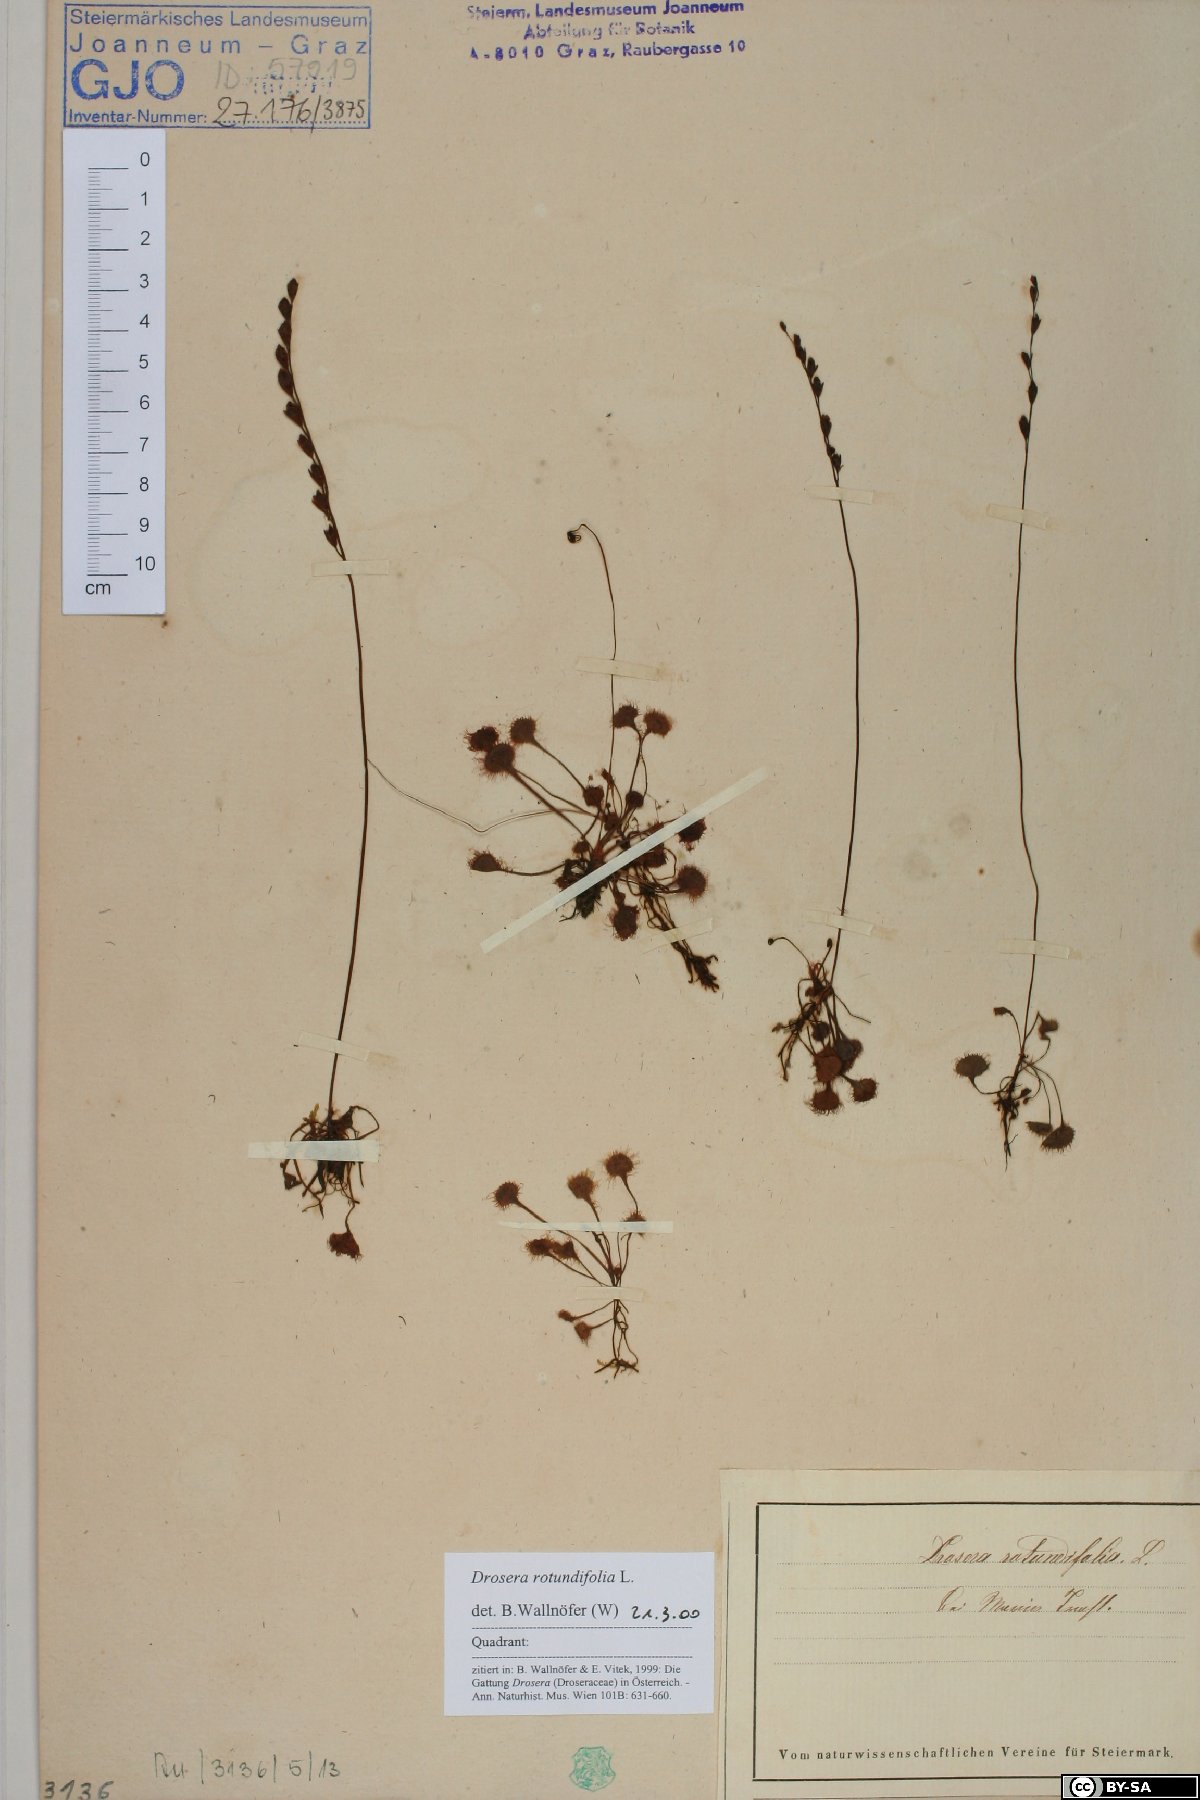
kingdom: Plantae
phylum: Tracheophyta
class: Magnoliopsida
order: Caryophyllales
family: Droseraceae
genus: Drosera
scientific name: Drosera rotundifolia
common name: Round-leaved sundew
